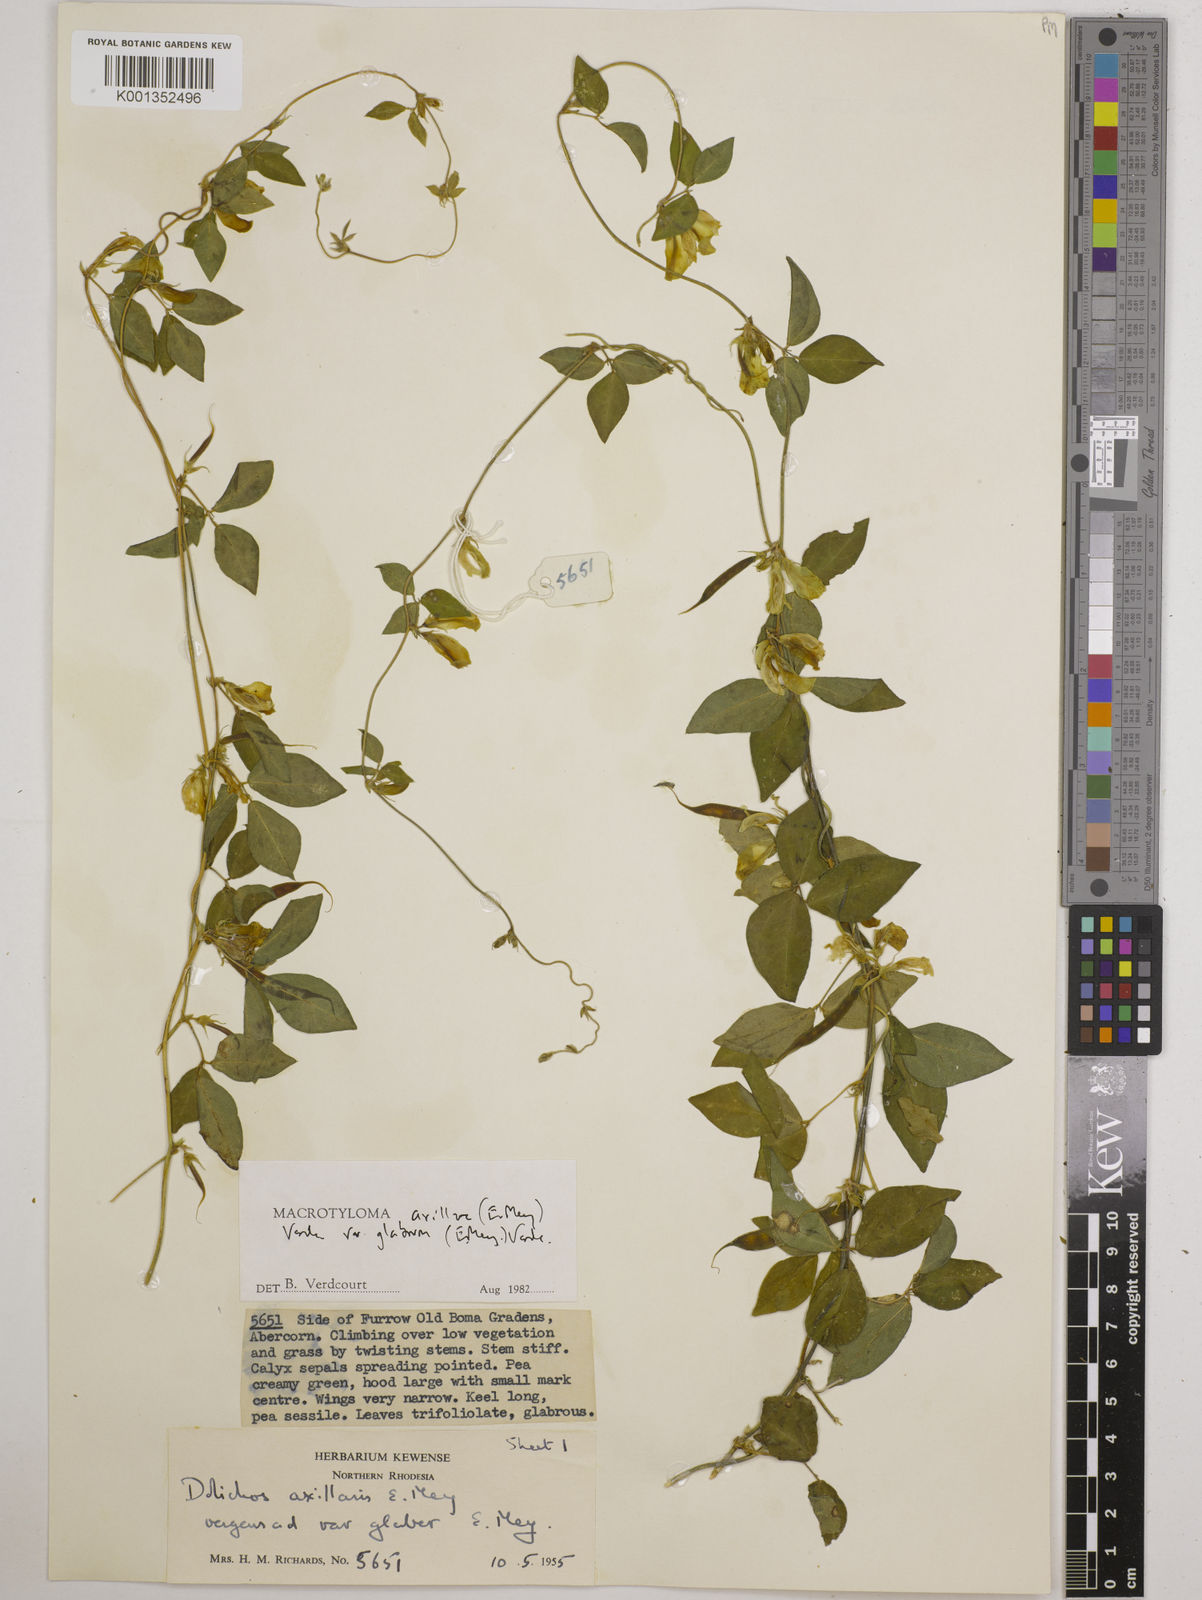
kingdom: Plantae
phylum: Tracheophyta
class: Magnoliopsida
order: Fabales
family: Fabaceae
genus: Macrotyloma
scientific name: Macrotyloma
